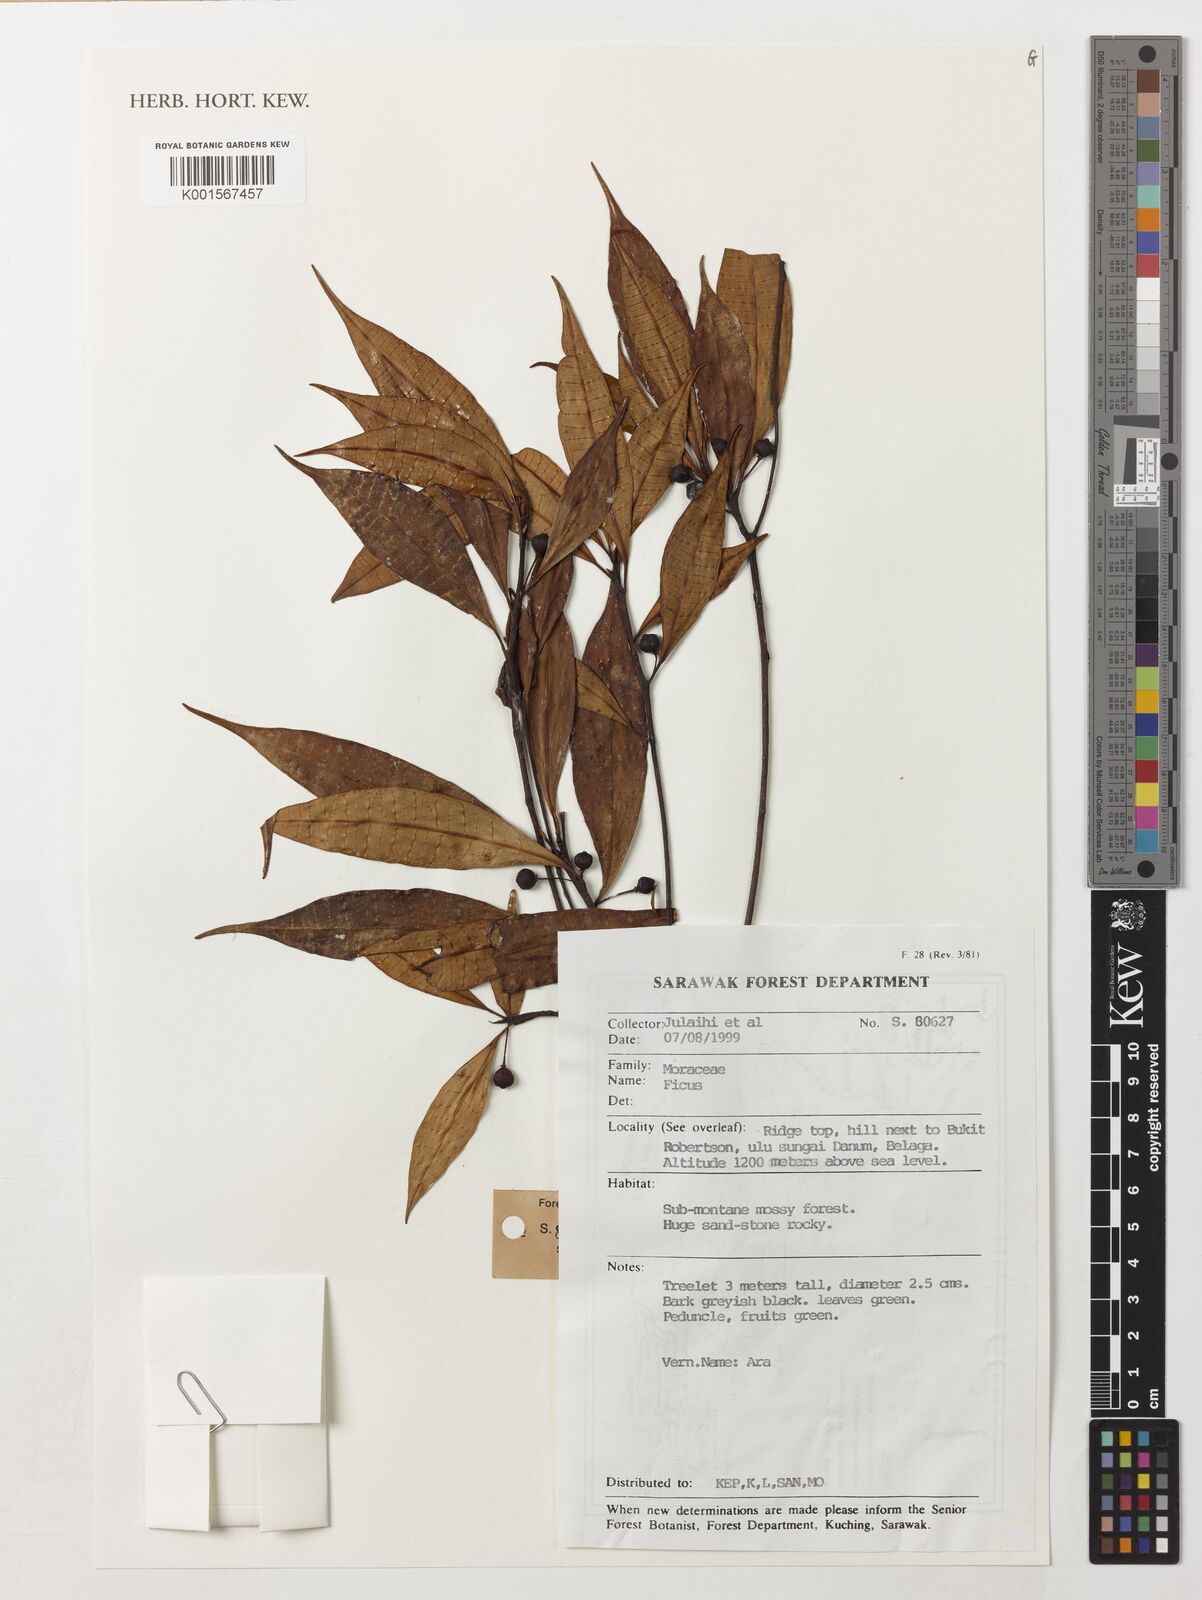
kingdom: Plantae
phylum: Tracheophyta
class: Magnoliopsida
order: Rosales
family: Moraceae
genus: Ficus
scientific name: Ficus
